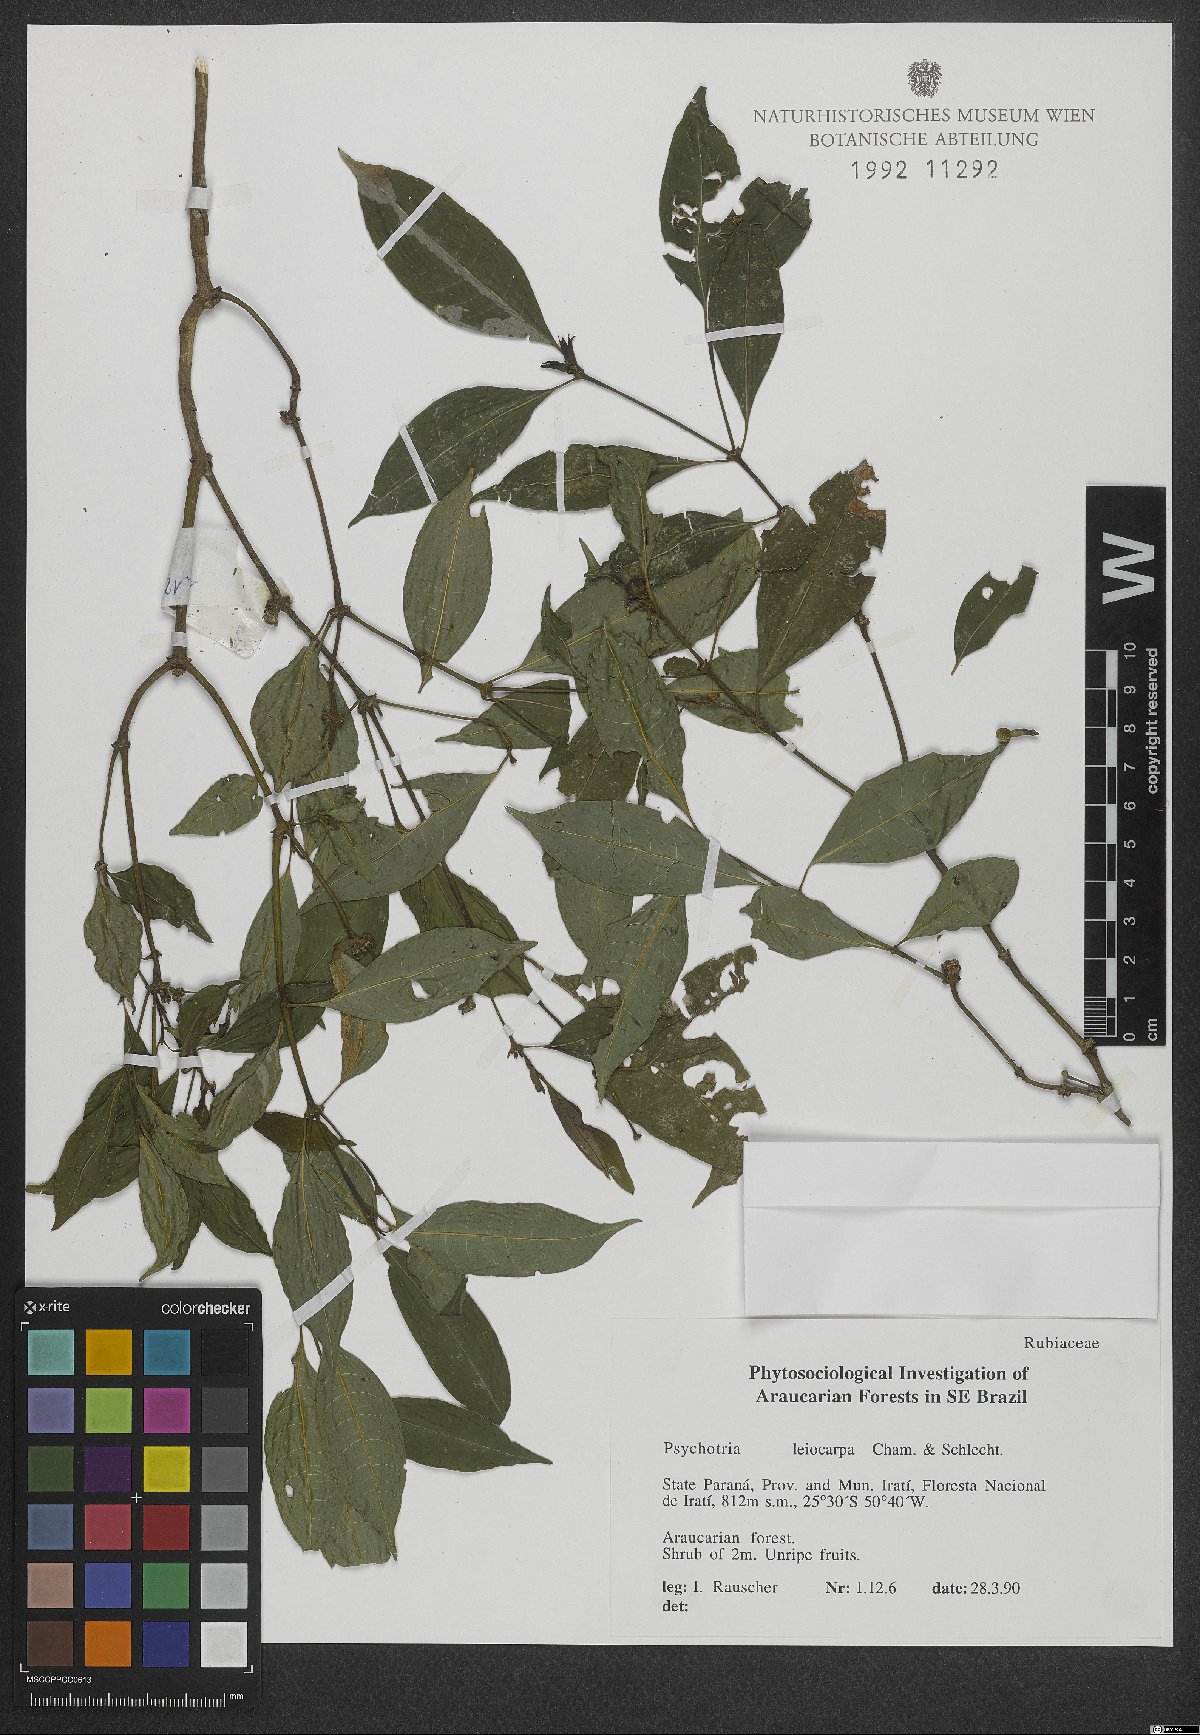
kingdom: Plantae
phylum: Tracheophyta
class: Magnoliopsida
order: Gentianales
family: Rubiaceae
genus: Psychotria
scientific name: Psychotria leiocarpa
